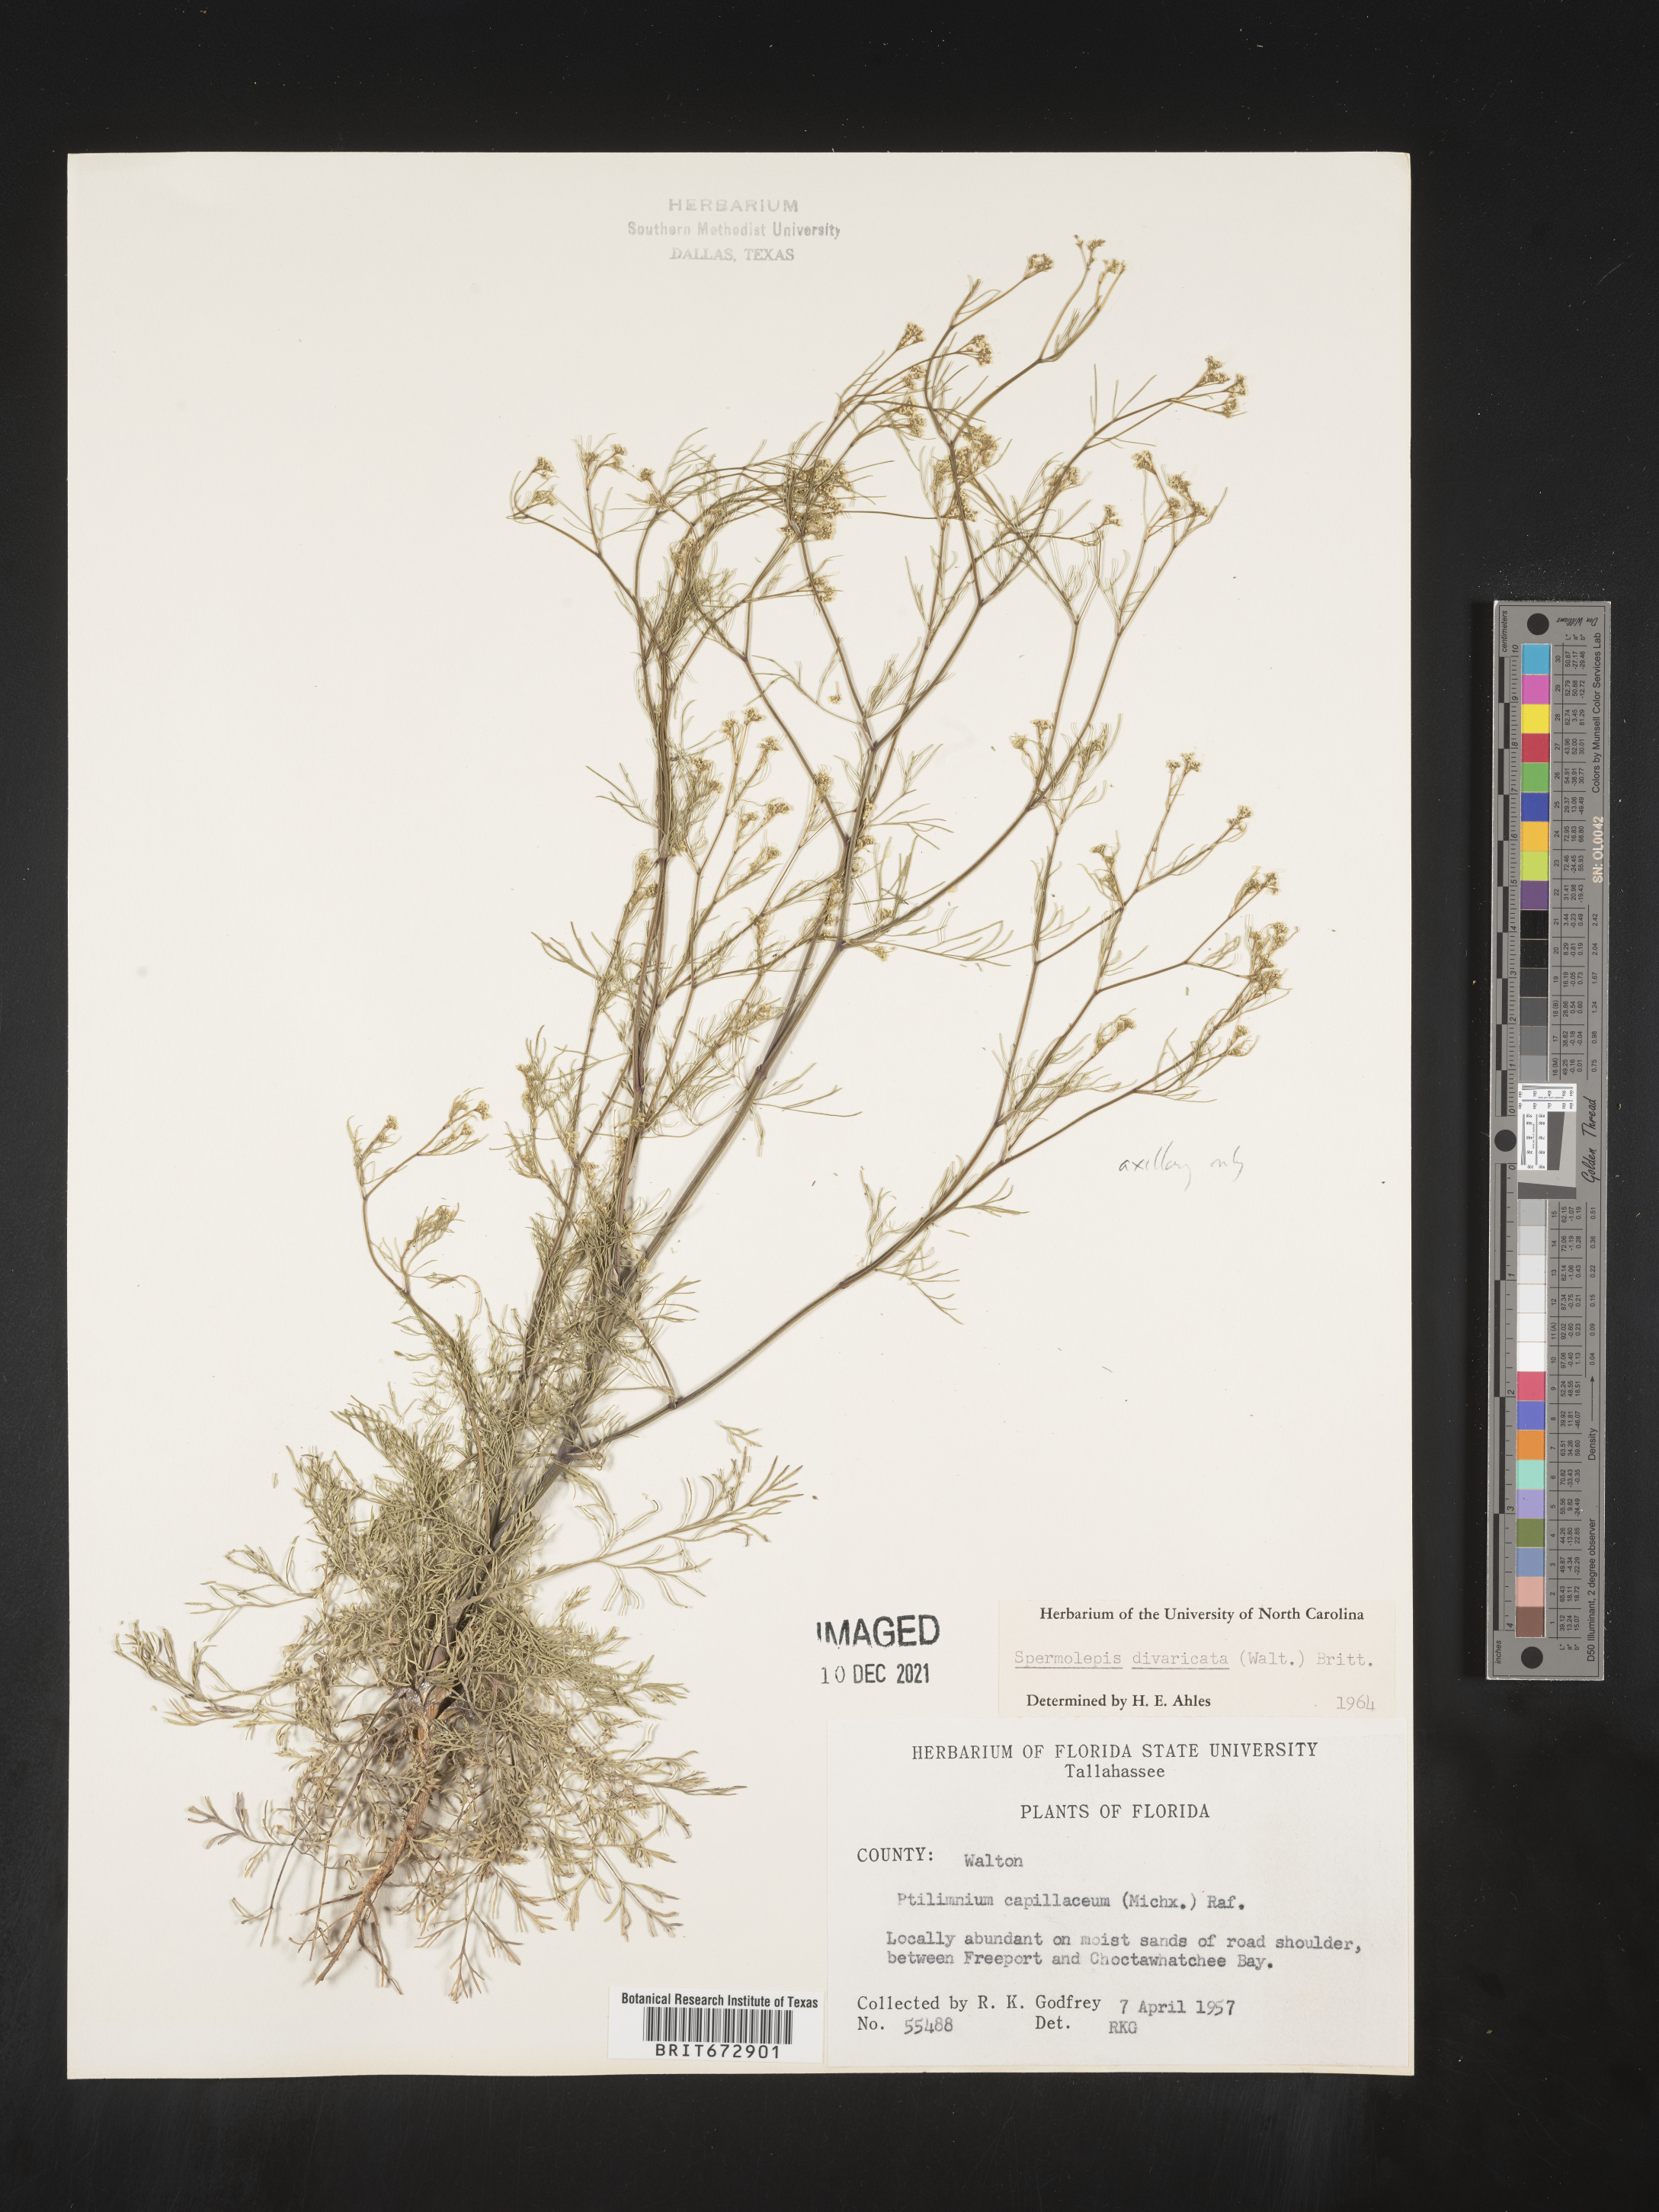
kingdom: Plantae
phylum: Tracheophyta
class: Magnoliopsida
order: Apiales
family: Apiaceae
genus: Spermolepis
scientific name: Spermolepis divaricata
